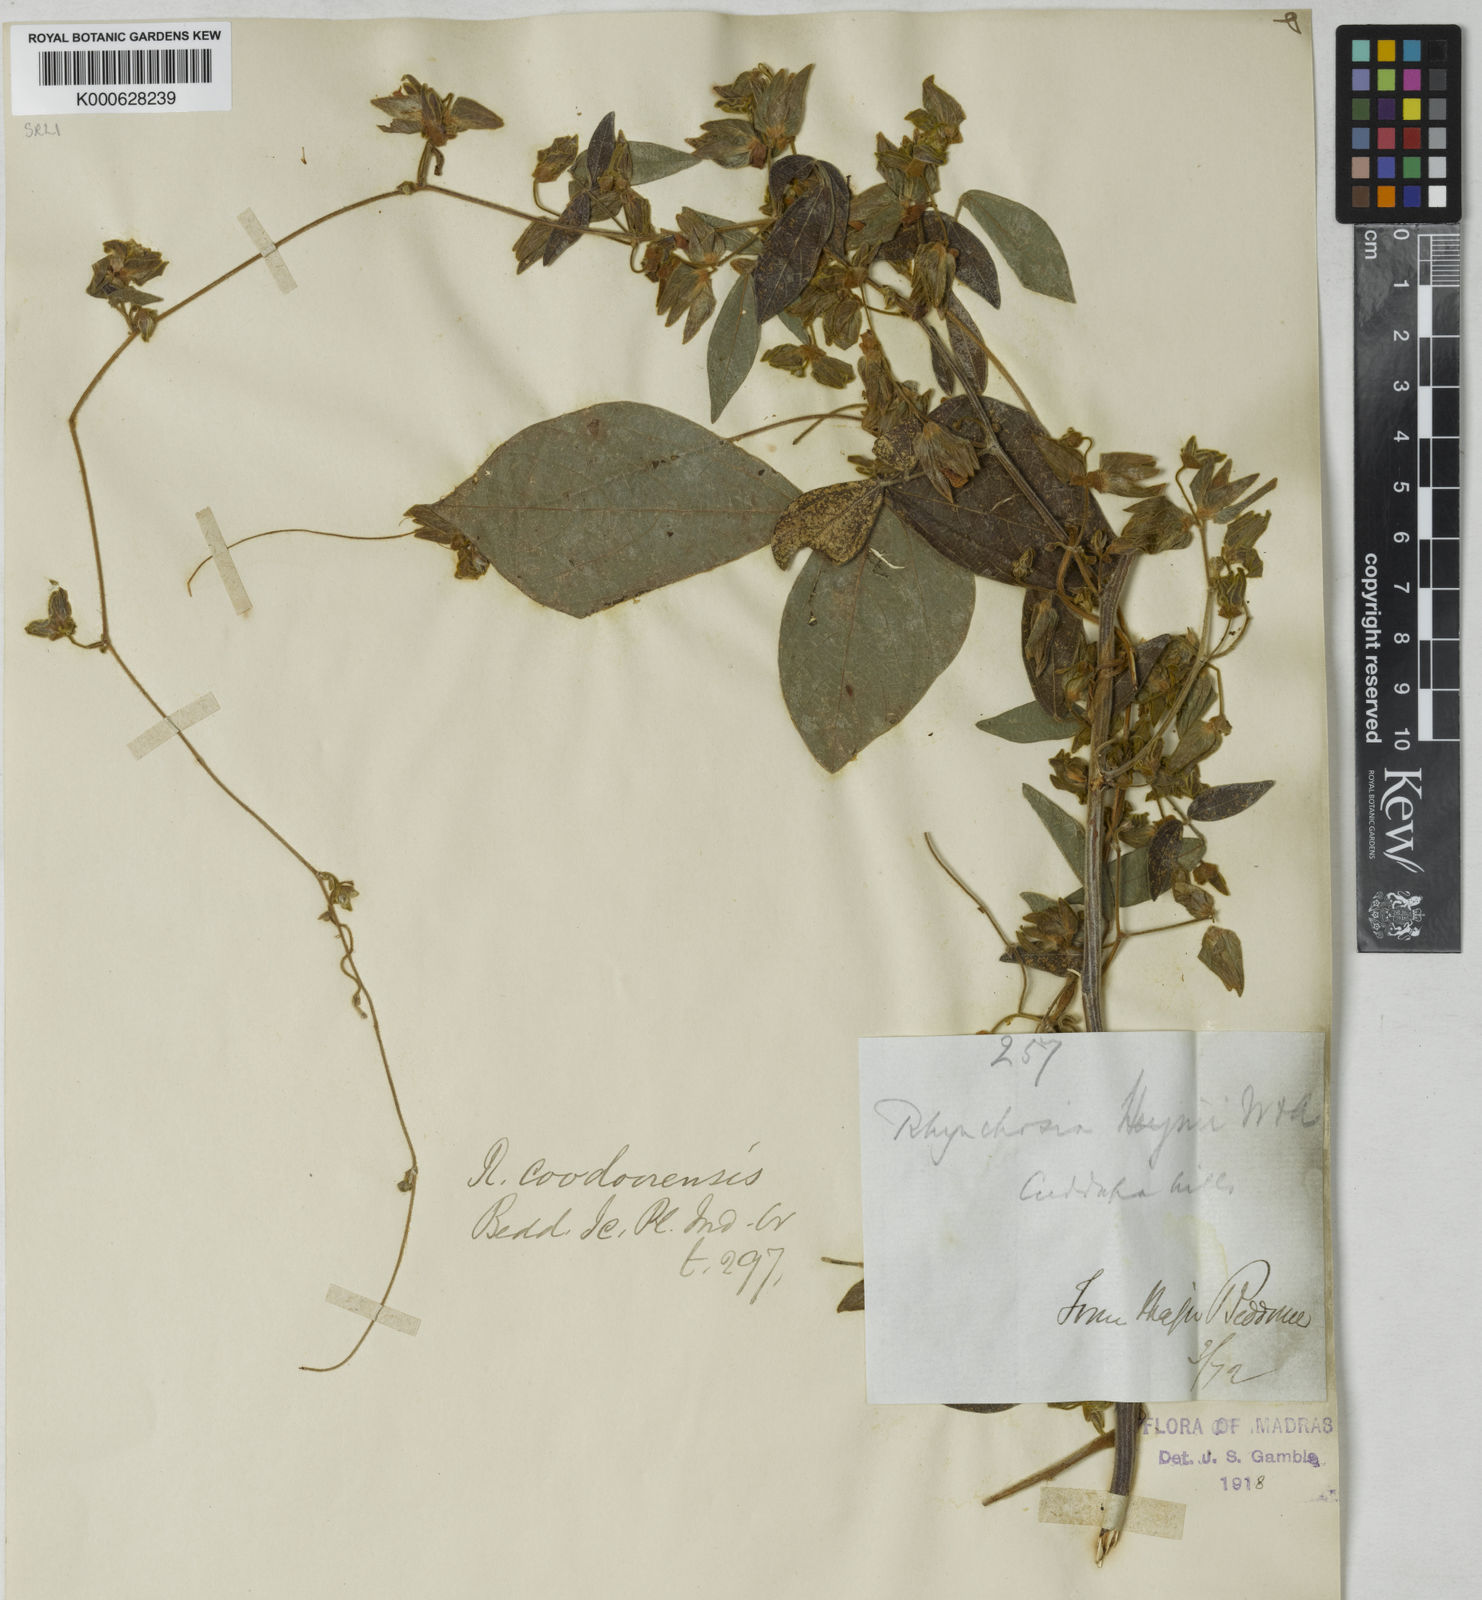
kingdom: Plantae
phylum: Tracheophyta
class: Magnoliopsida
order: Fabales
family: Fabaceae
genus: Rhynchosia
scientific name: Rhynchosia heynei
